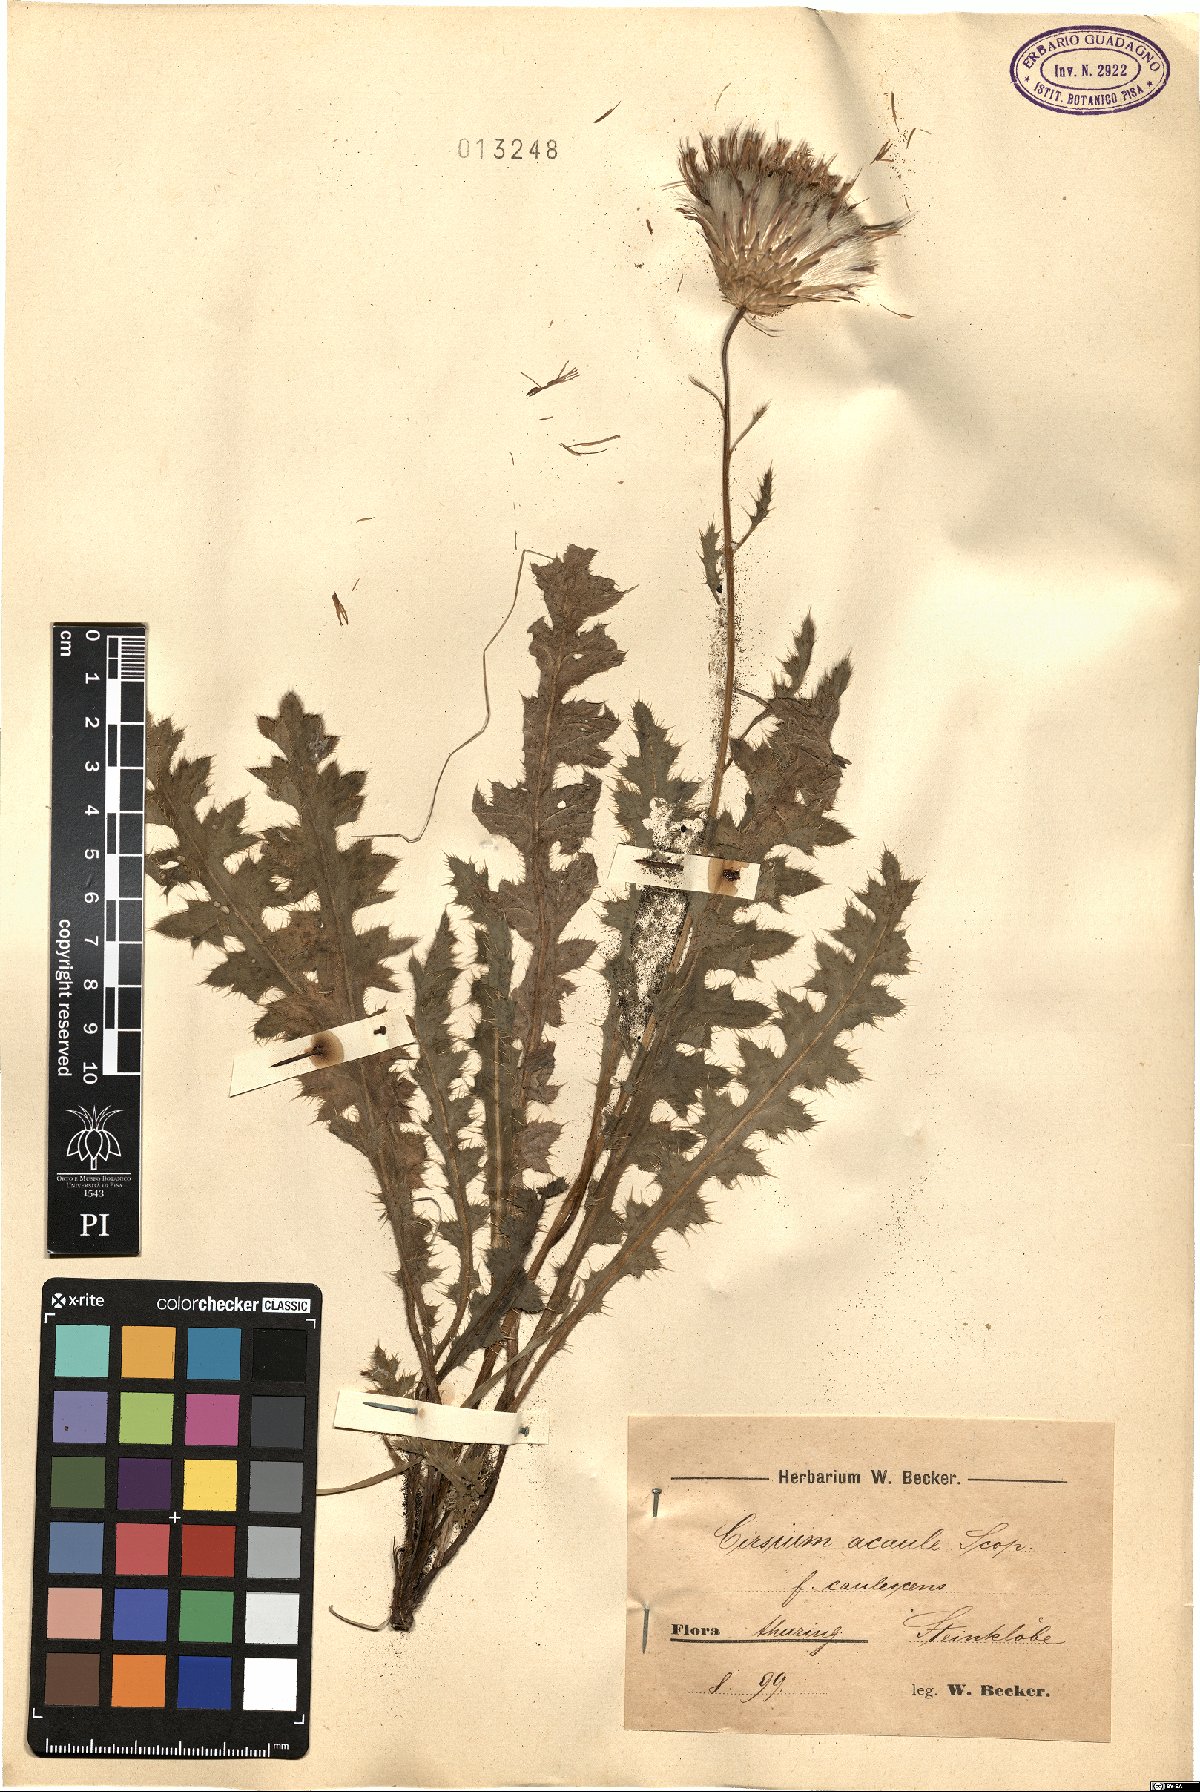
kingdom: Plantae
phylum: Tracheophyta
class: Magnoliopsida
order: Asterales
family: Asteraceae
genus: Cirsium
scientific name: Cirsium acaule
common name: Dwarf thistle
